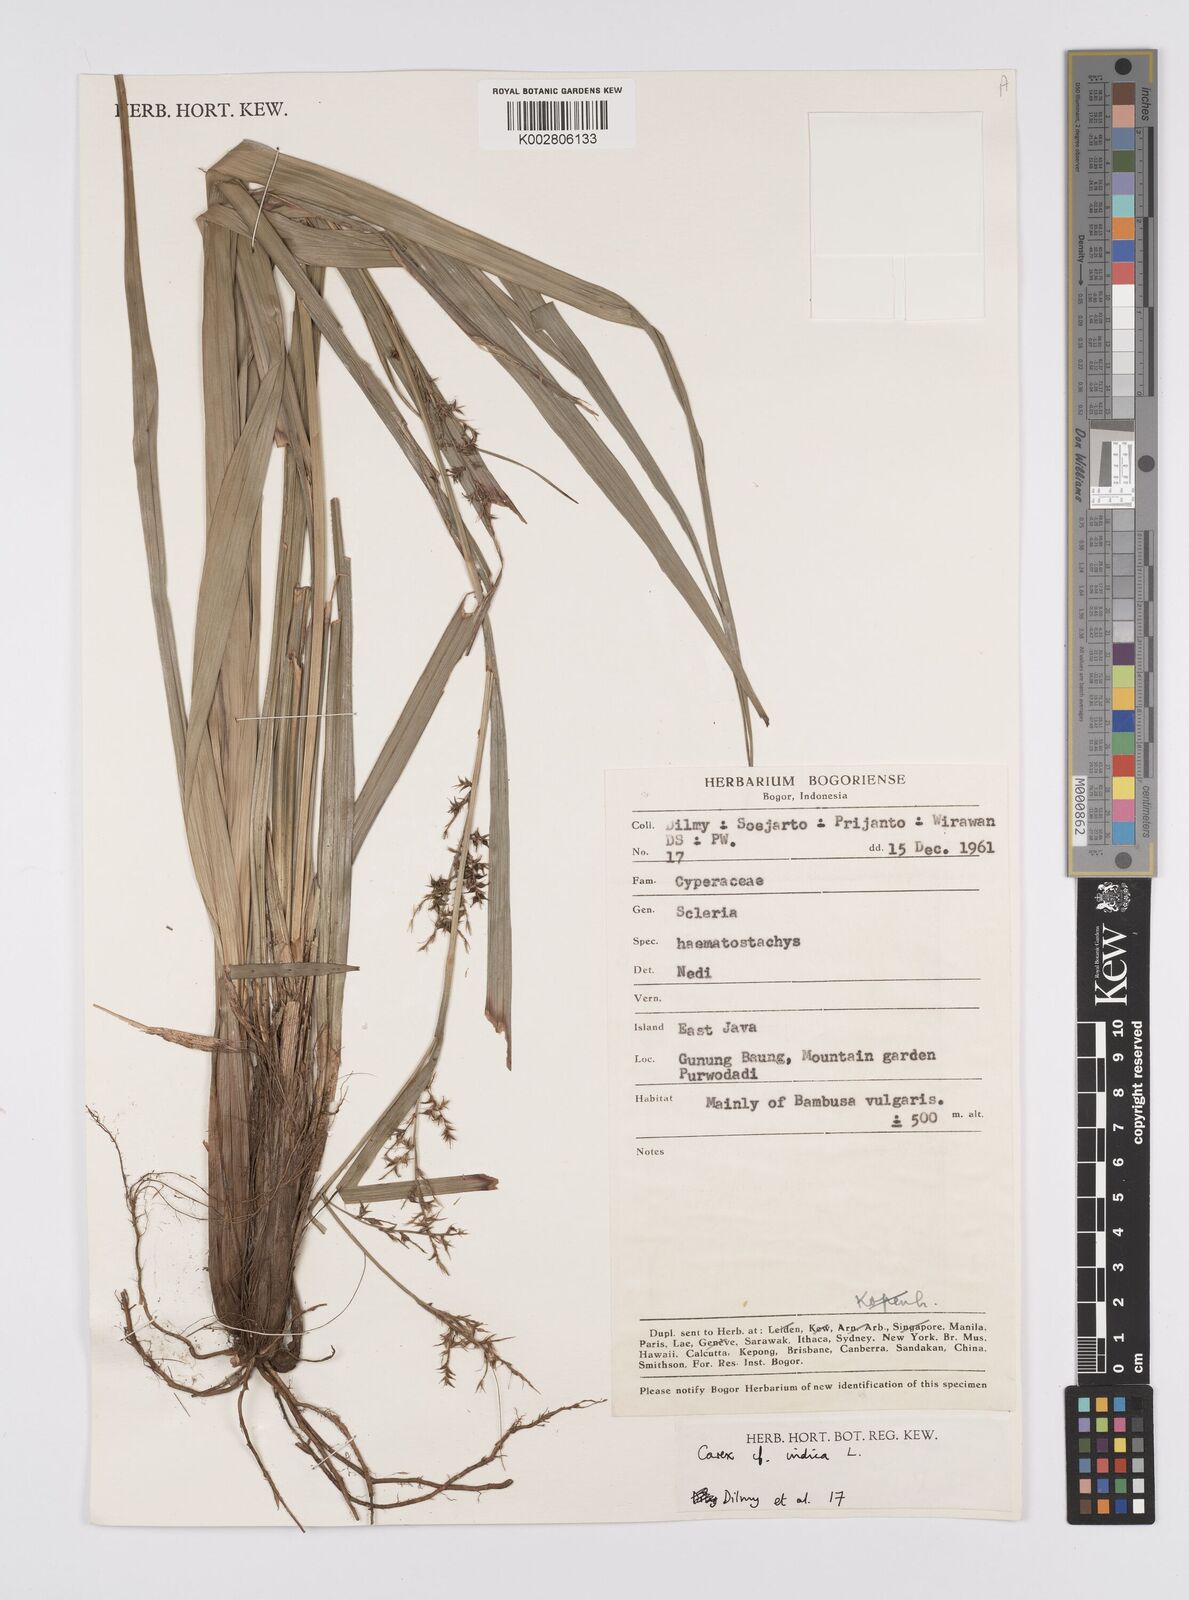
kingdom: Plantae
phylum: Tracheophyta
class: Liliopsida
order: Poales
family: Cyperaceae
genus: Carex
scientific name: Carex indica
